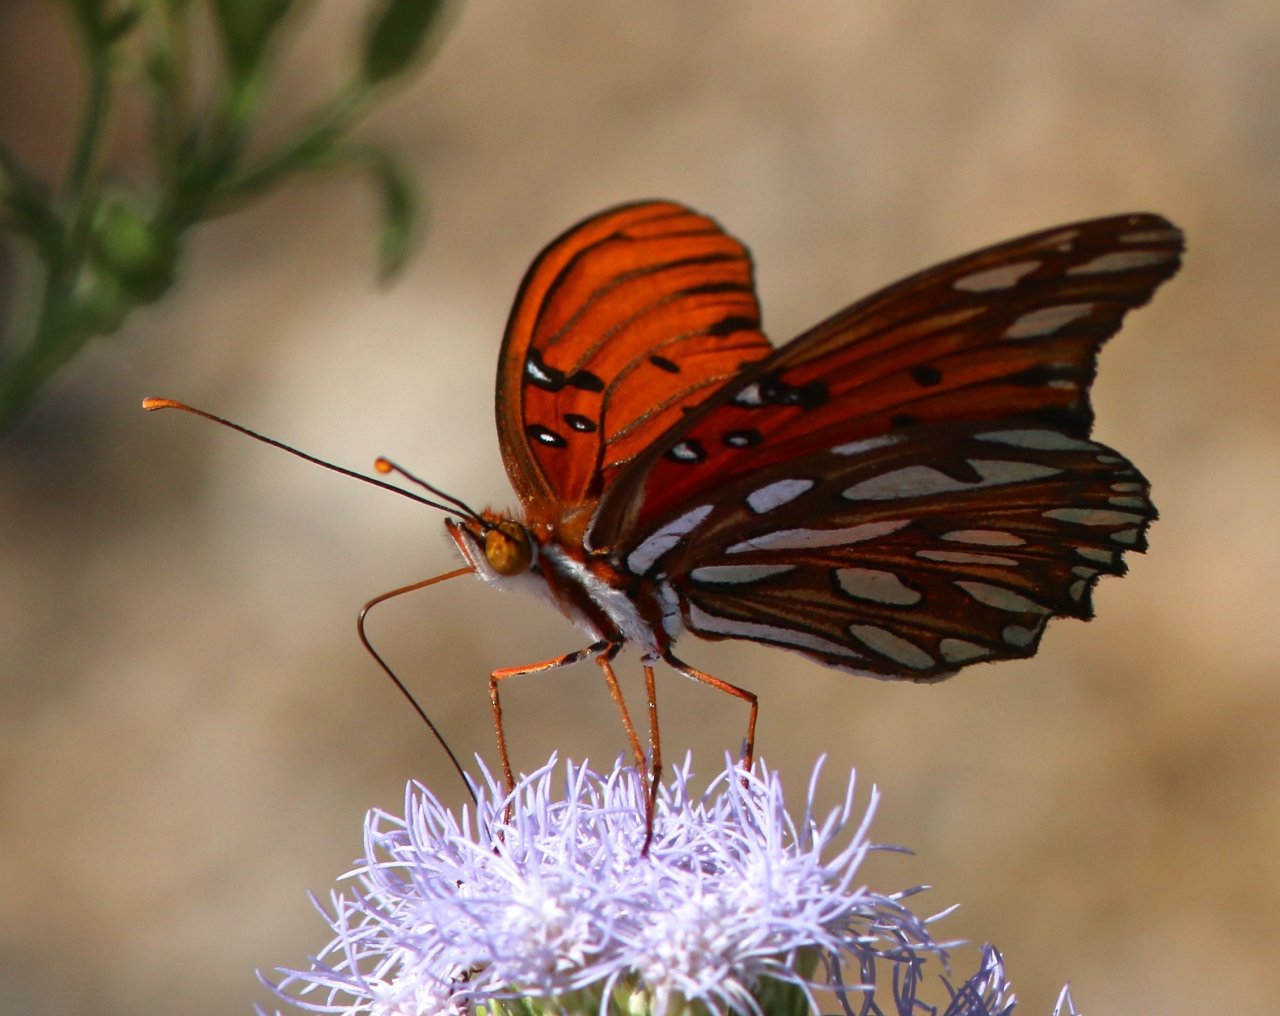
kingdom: Animalia
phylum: Arthropoda
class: Insecta
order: Lepidoptera
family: Nymphalidae
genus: Dione
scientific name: Dione vanillae
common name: Gulf Fritillary
